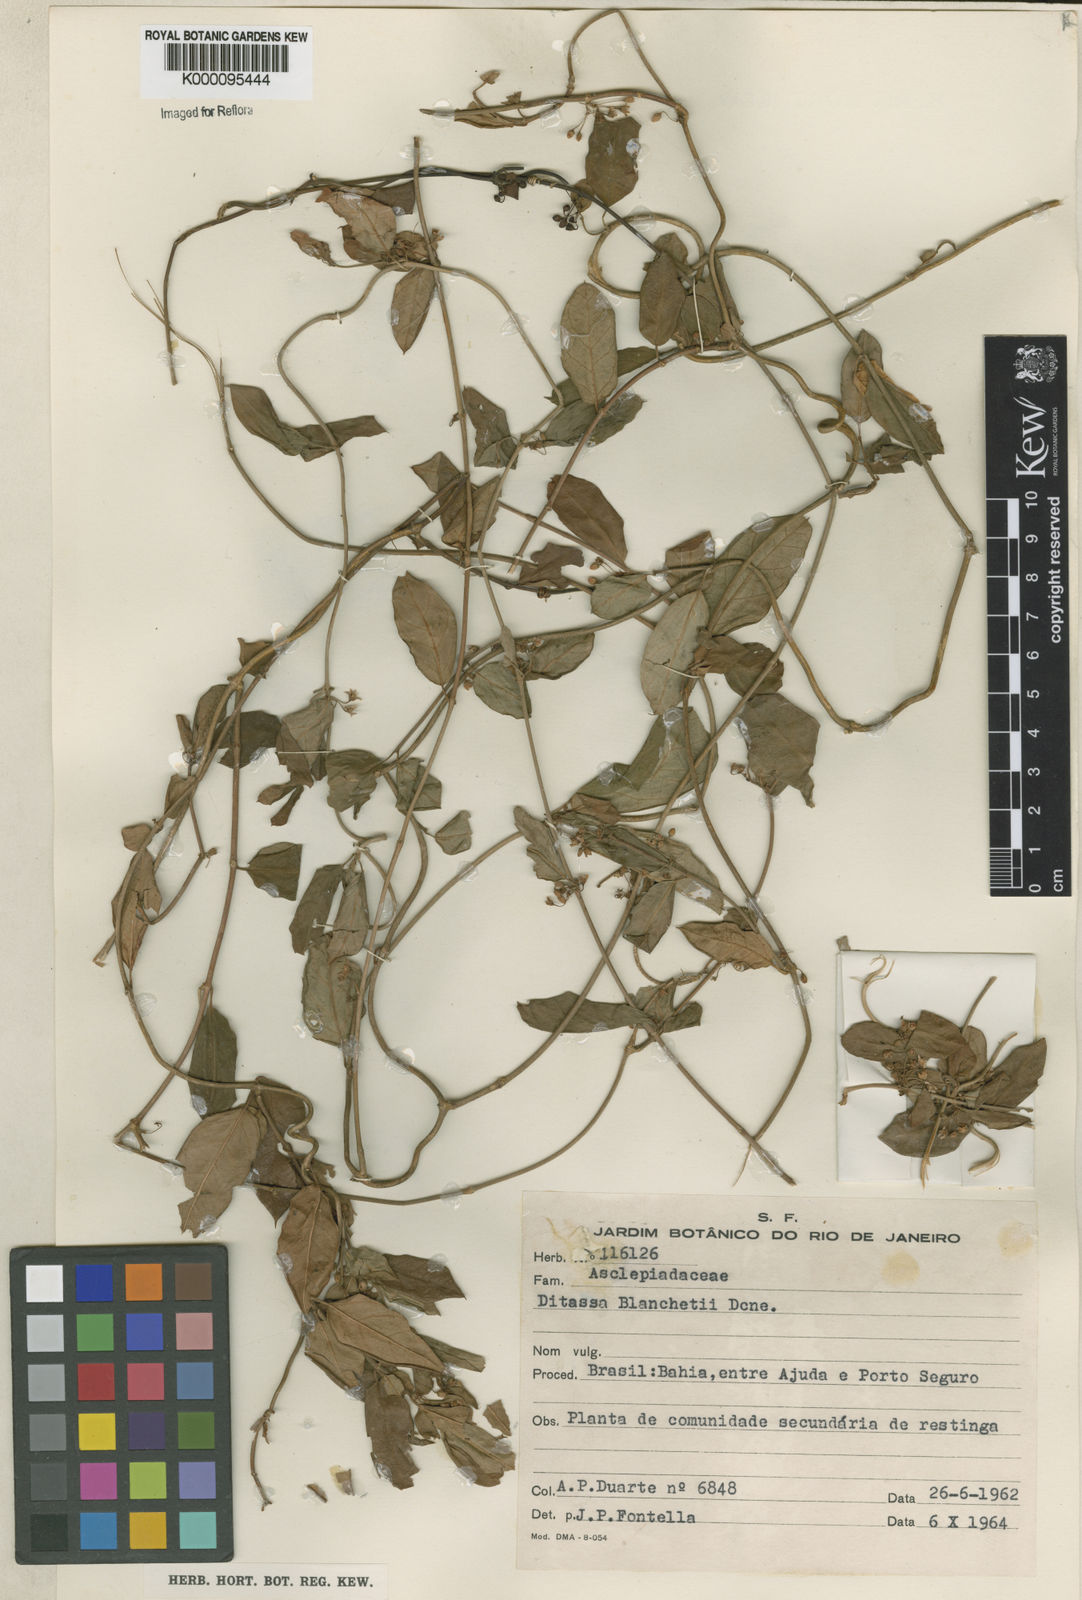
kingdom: Plantae
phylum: Tracheophyta
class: Magnoliopsida
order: Gentianales
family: Apocynaceae
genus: Ditassa
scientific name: Ditassa blanchetii
